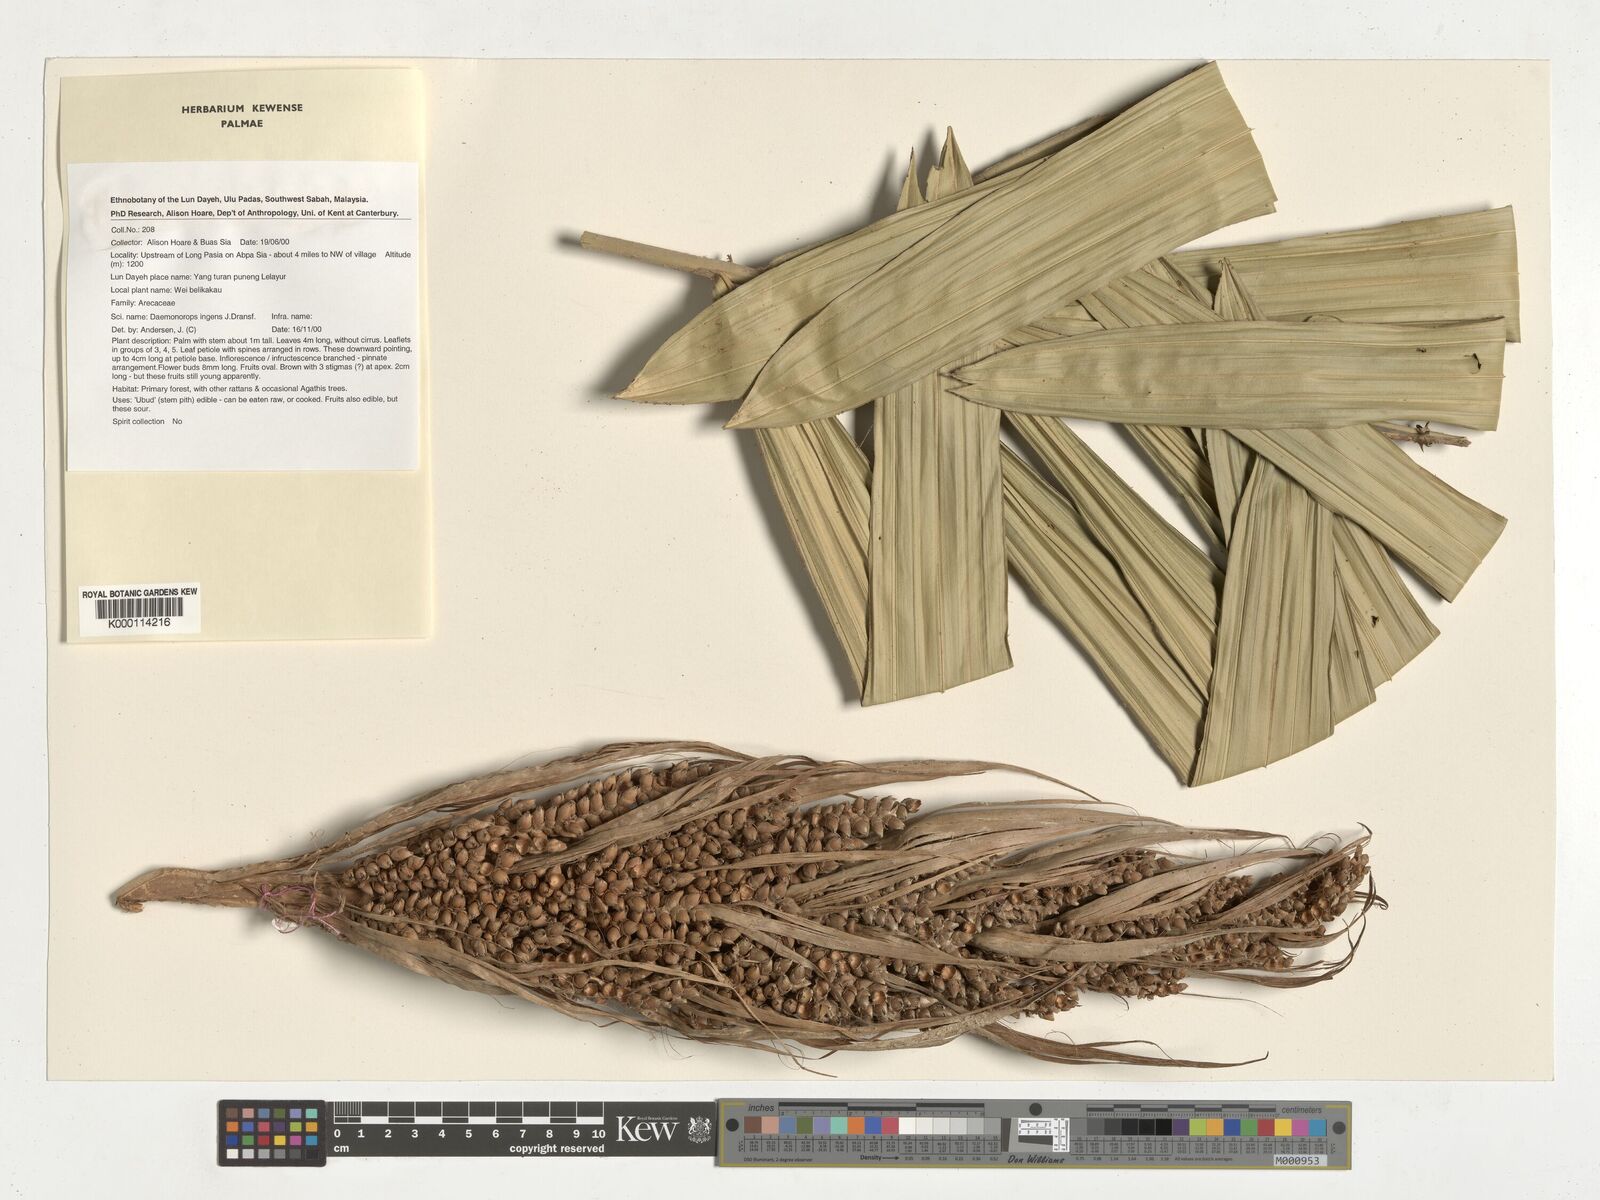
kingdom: Plantae
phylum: Tracheophyta
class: Liliopsida
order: Arecales
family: Arecaceae
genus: Calamus
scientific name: Calamus ingens
